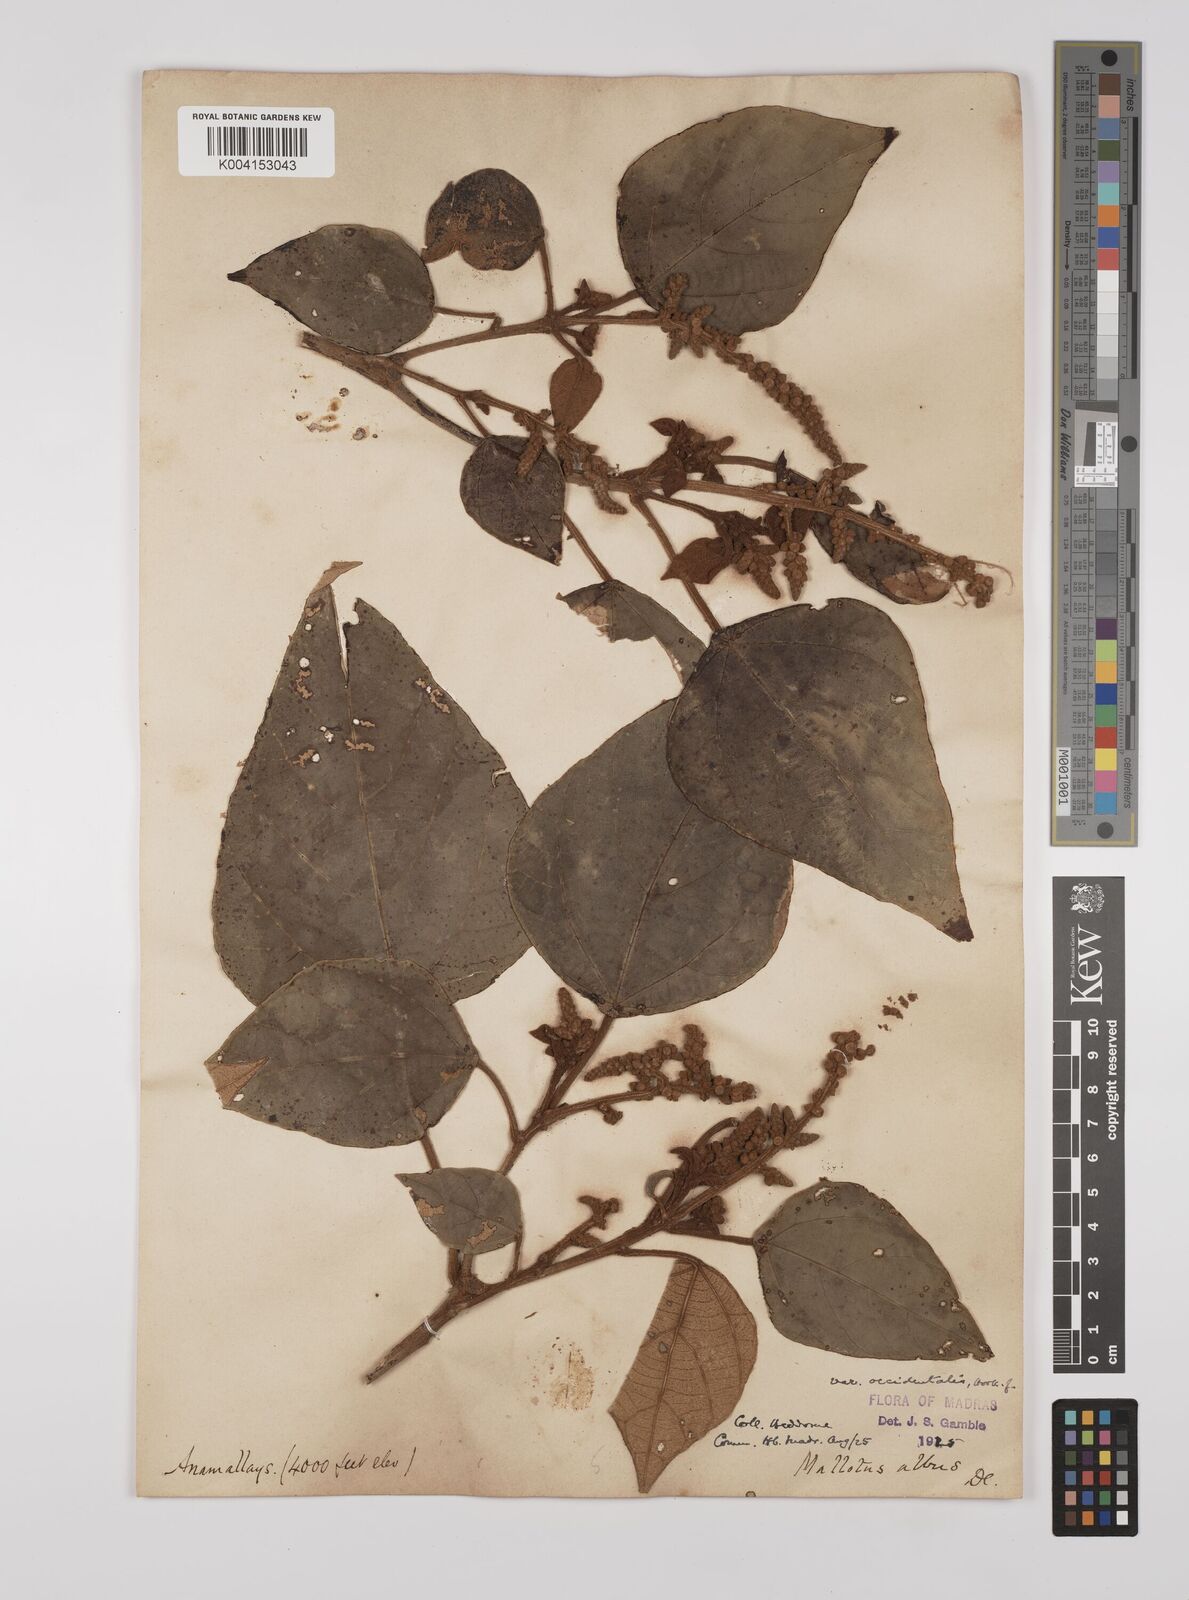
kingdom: Plantae
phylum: Tracheophyta
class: Magnoliopsida
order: Malpighiales
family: Euphorbiaceae
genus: Mallotus
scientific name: Mallotus tetracoccus
